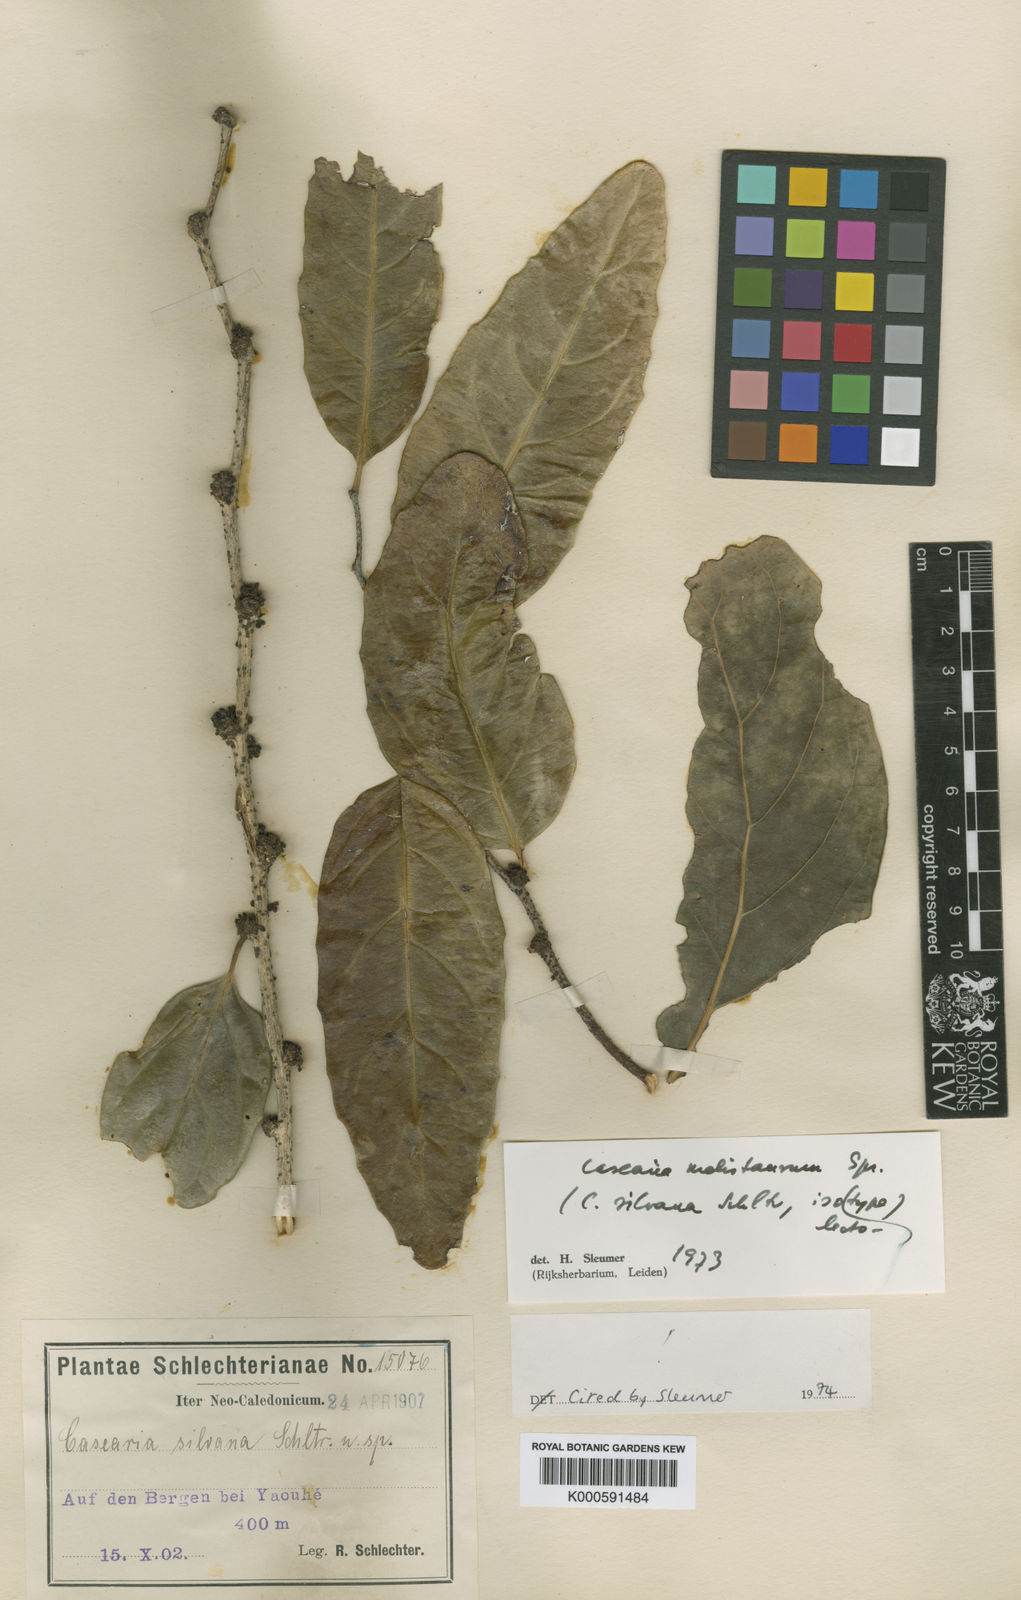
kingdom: Plantae
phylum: Tracheophyta
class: Magnoliopsida
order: Malpighiales
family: Salicaceae
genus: Casearia
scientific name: Casearia silvana
